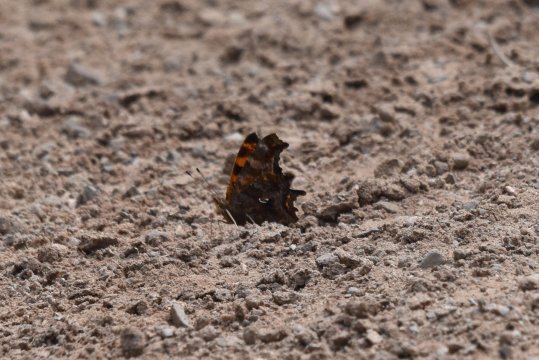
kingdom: Animalia
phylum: Arthropoda
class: Insecta
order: Lepidoptera
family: Nymphalidae
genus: Polygonia
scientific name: Polygonia comma
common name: Eastern Comma
